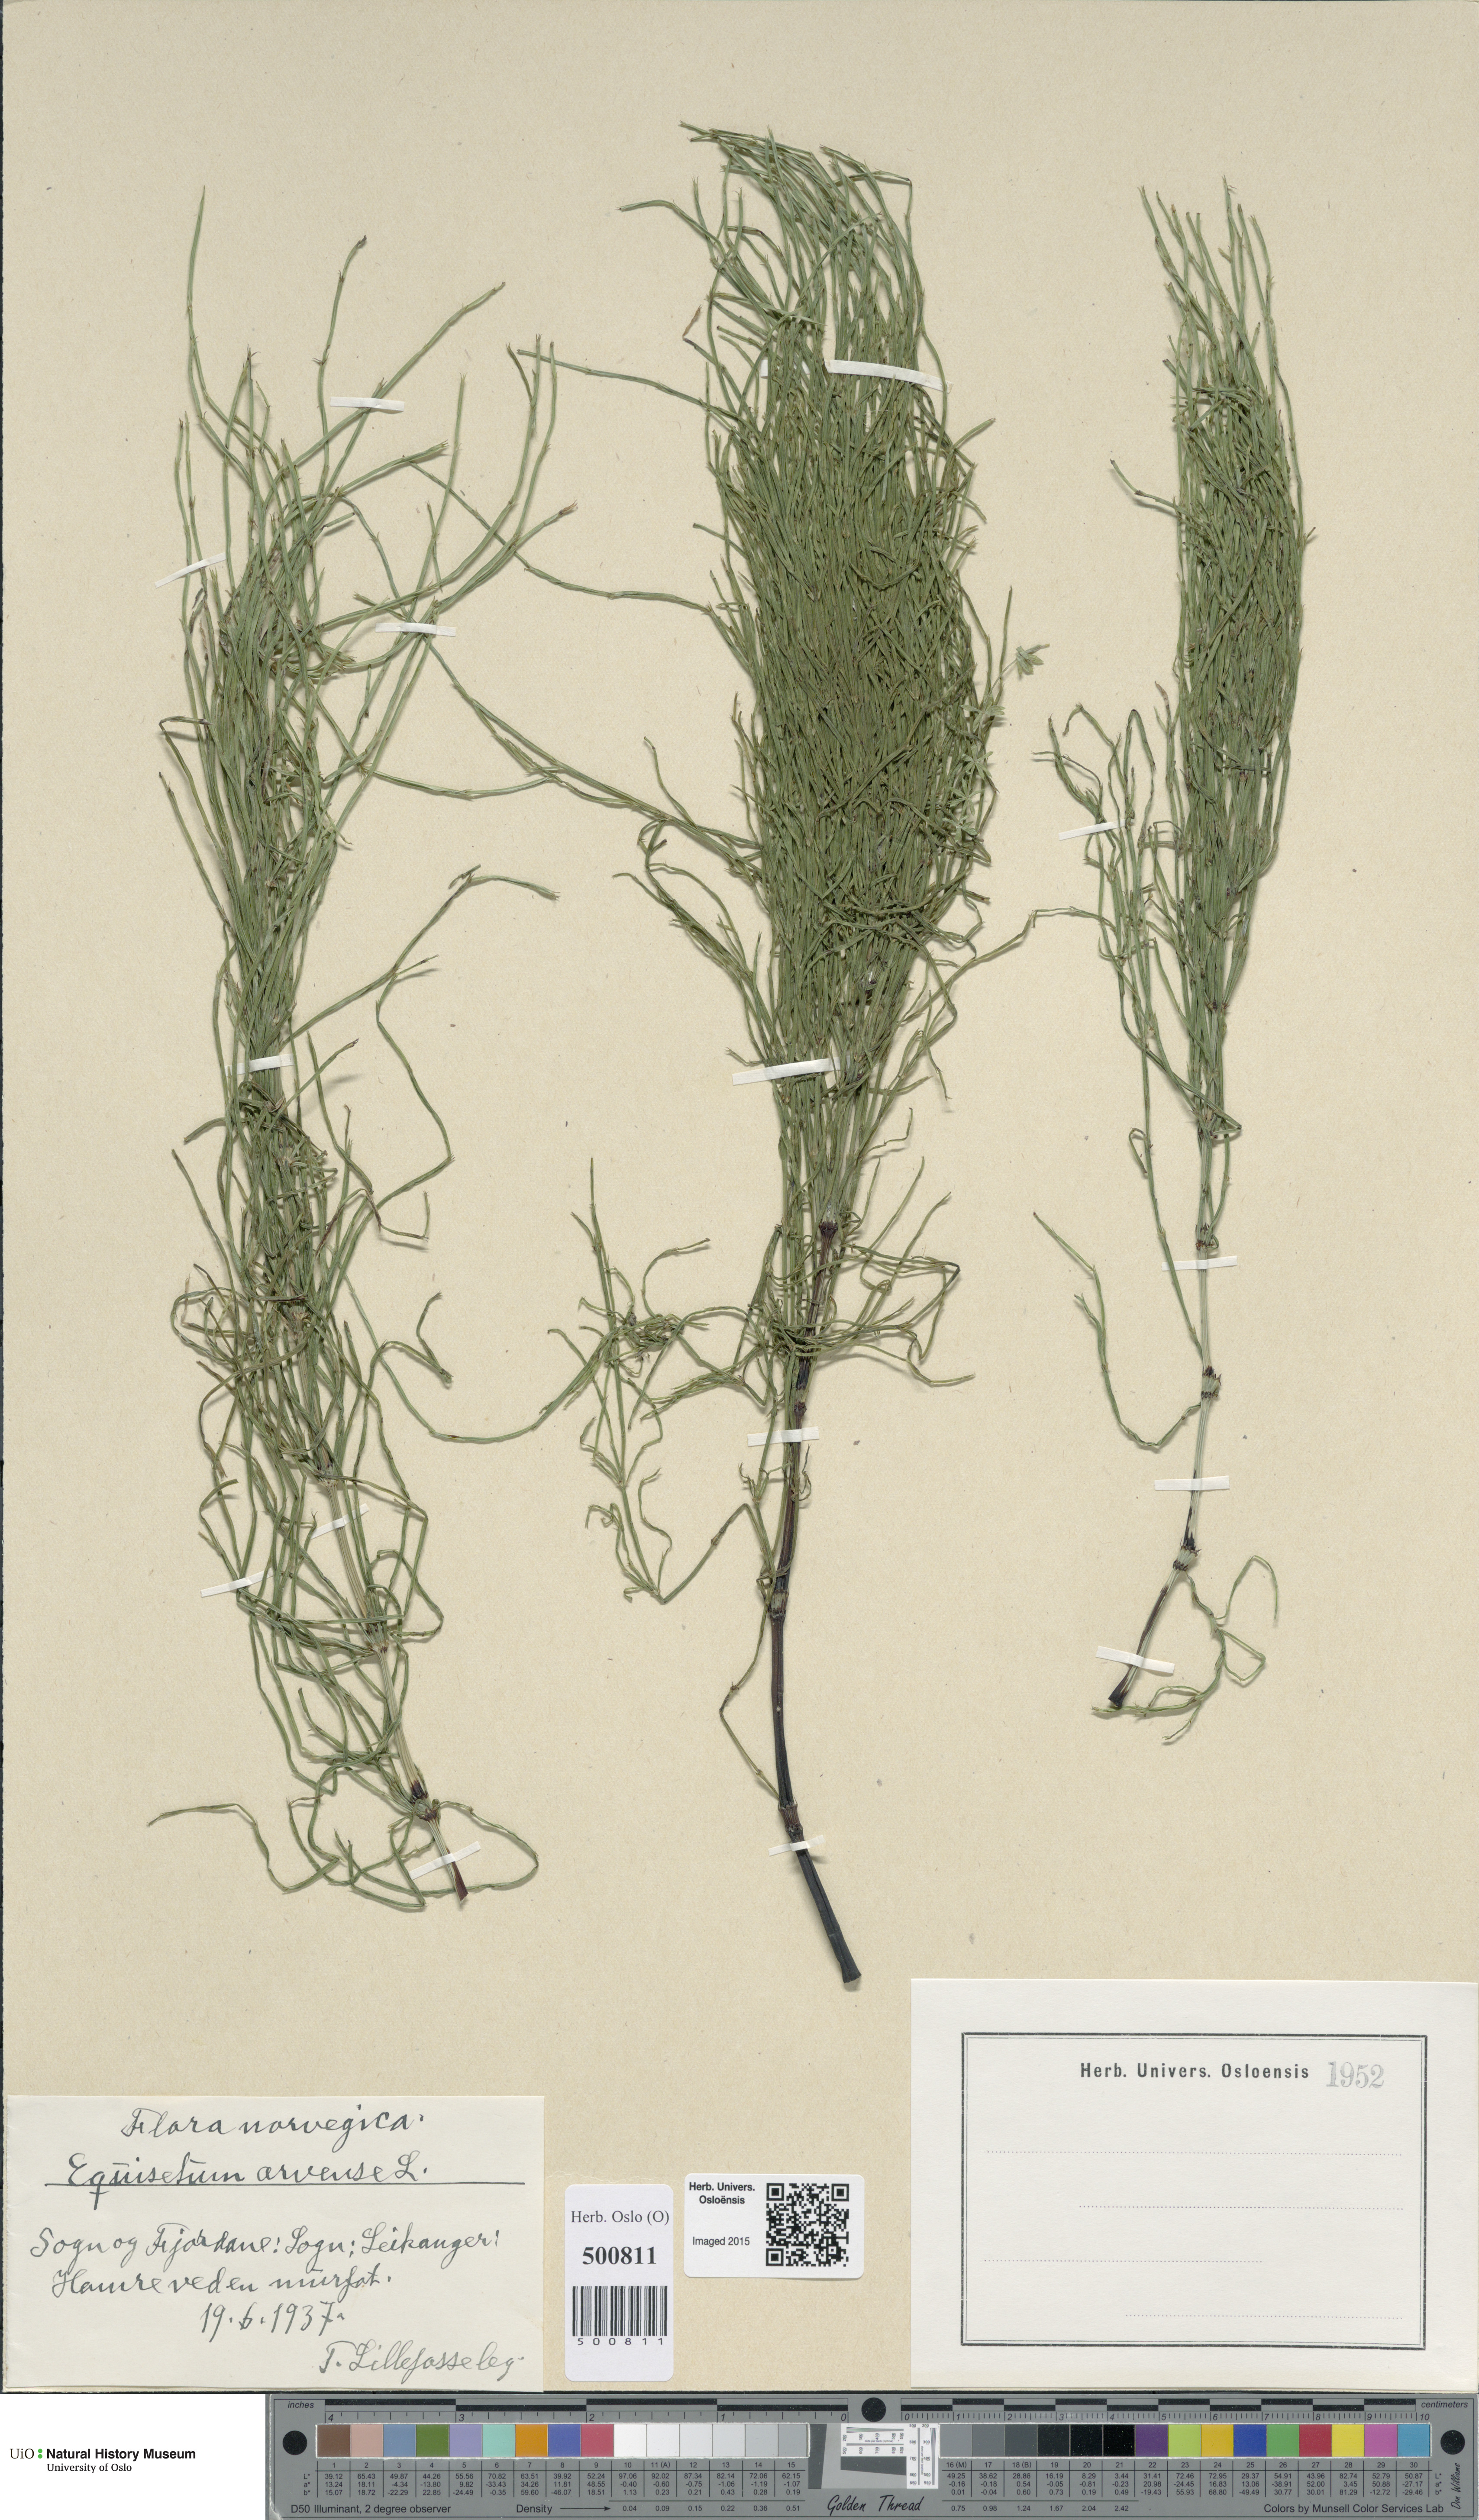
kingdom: Plantae
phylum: Tracheophyta
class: Polypodiopsida
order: Equisetales
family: Equisetaceae
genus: Equisetum
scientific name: Equisetum arvense
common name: Field horsetail
